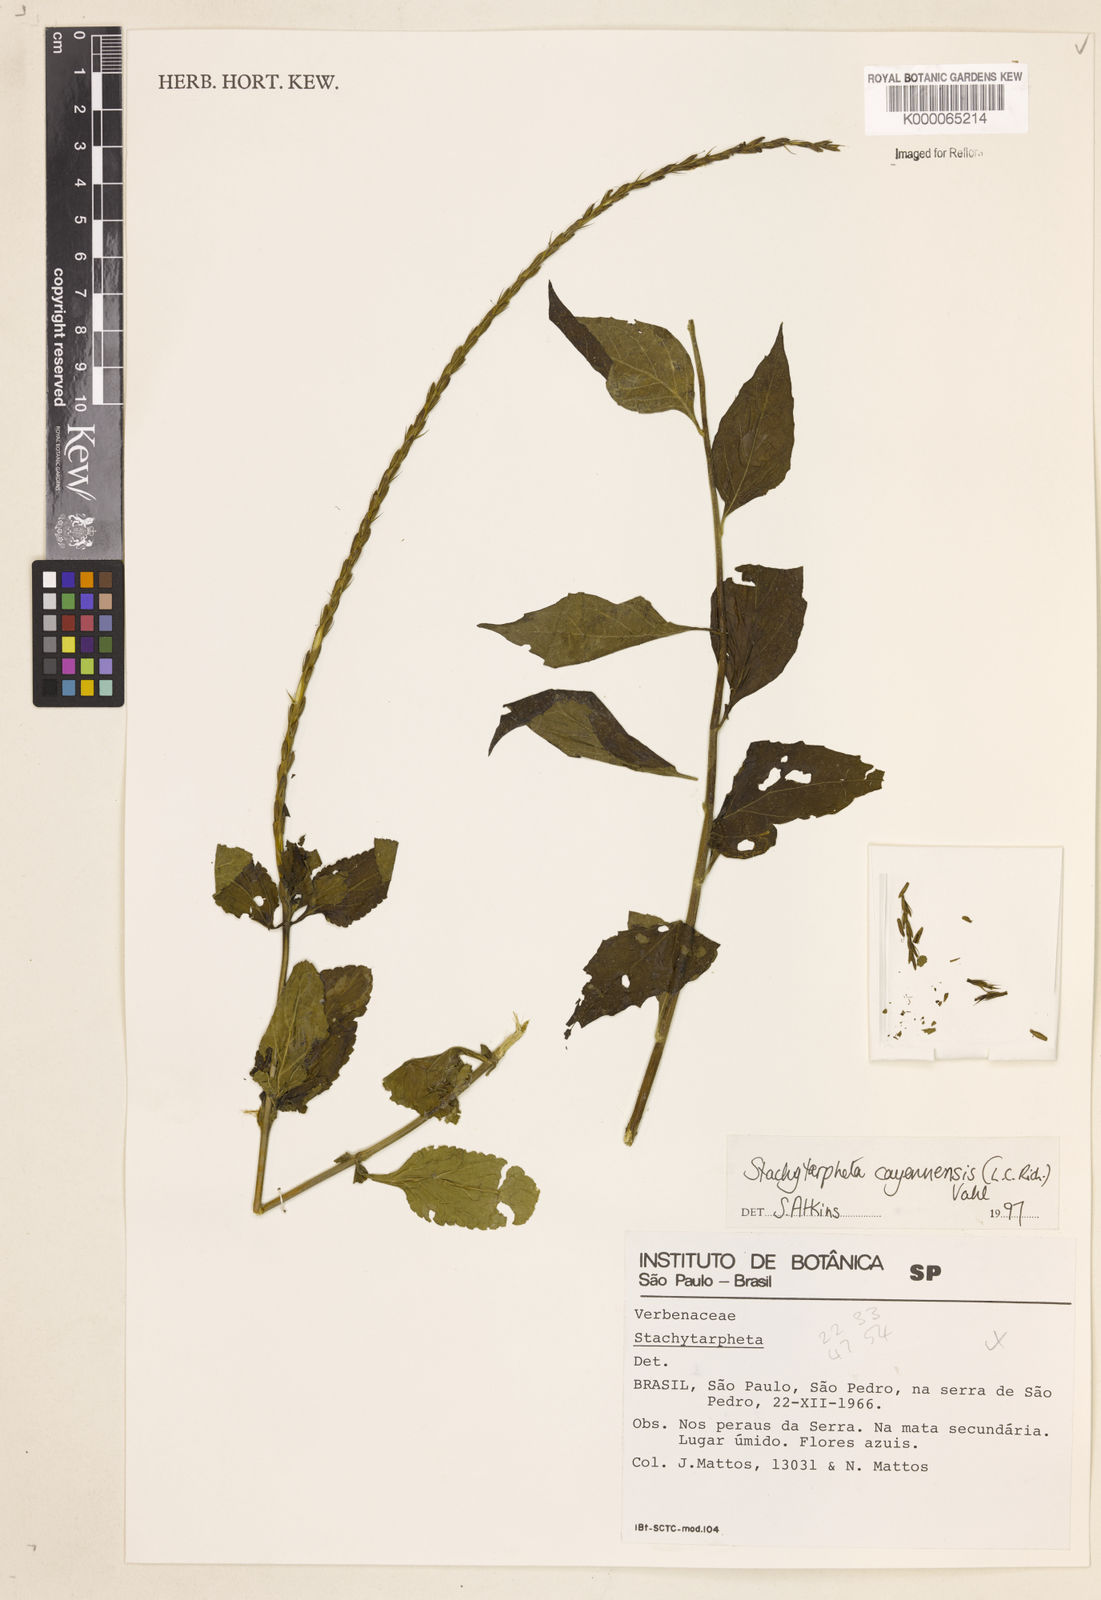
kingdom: Plantae
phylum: Tracheophyta
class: Magnoliopsida
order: Lamiales
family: Verbenaceae
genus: Stachytarpheta
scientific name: Stachytarpheta cayennensis
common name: Cayenne porterweed
